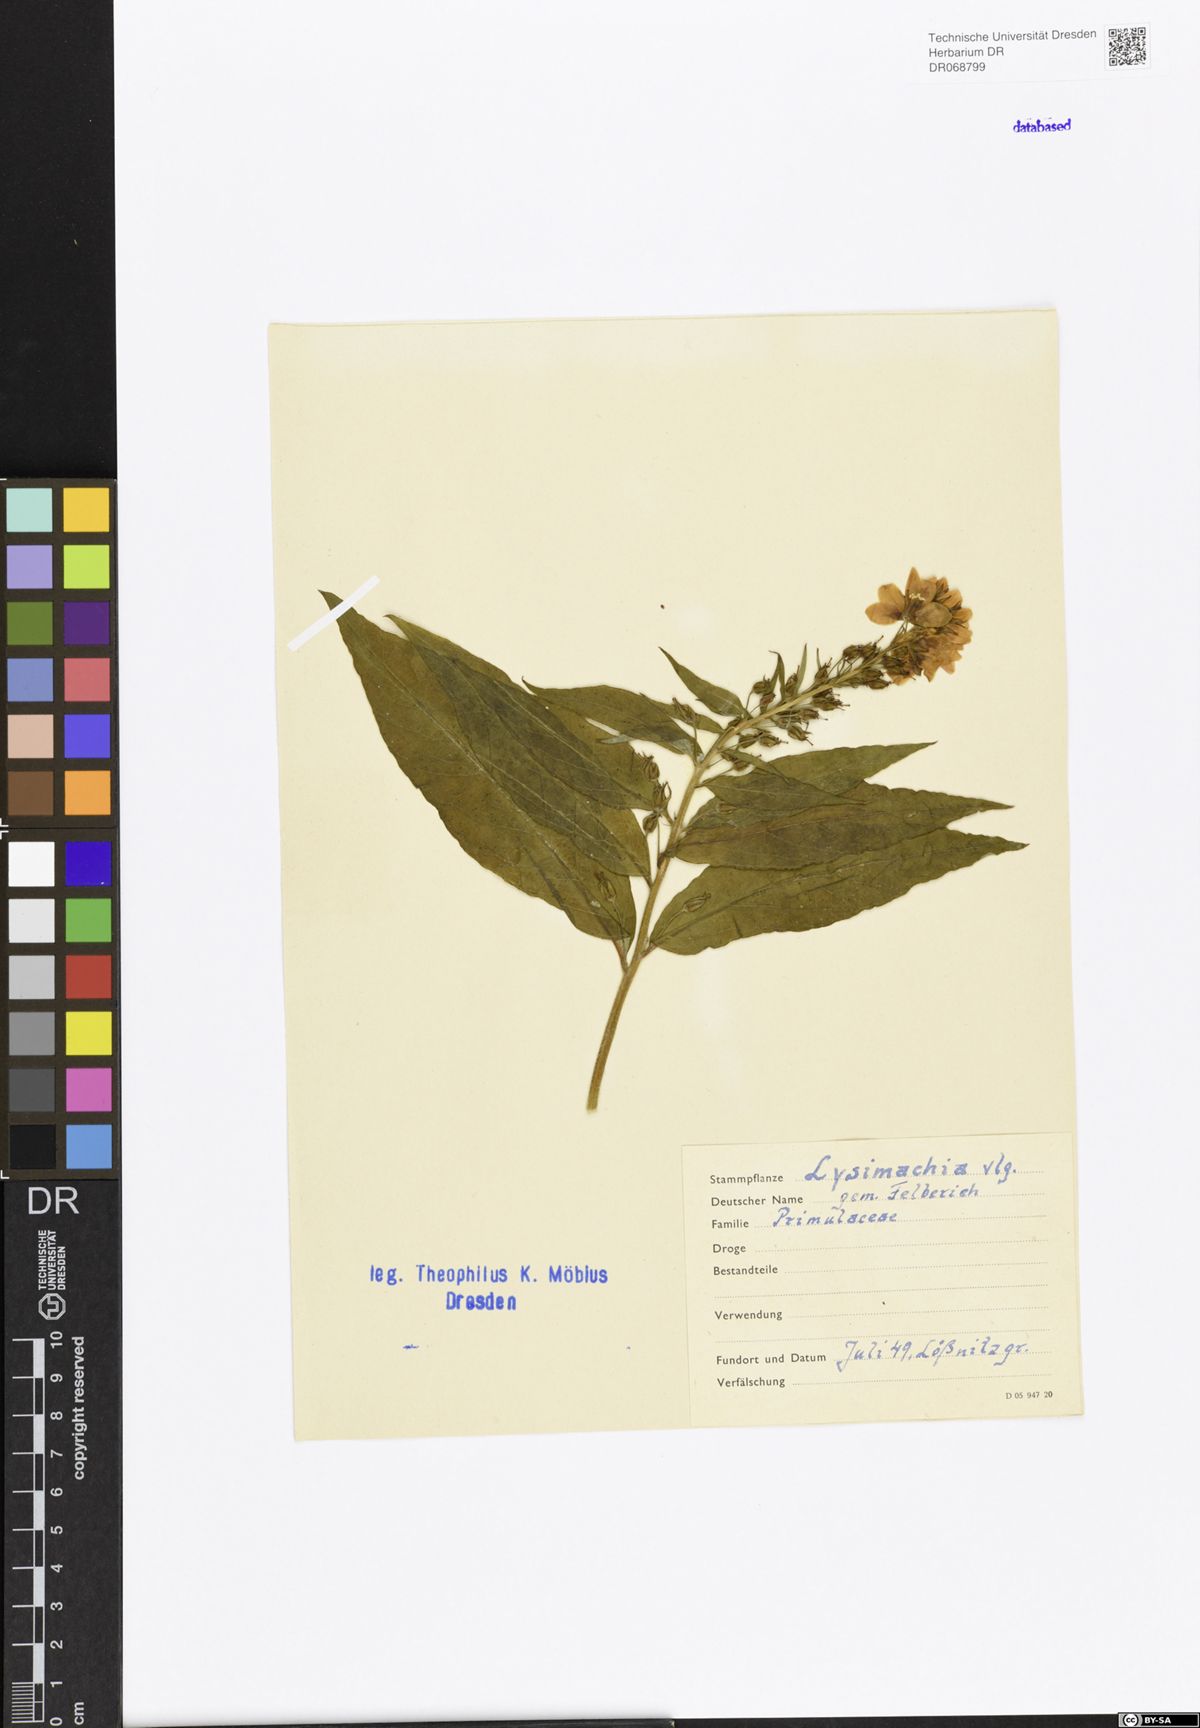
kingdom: Plantae
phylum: Tracheophyta
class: Magnoliopsida
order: Ericales
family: Primulaceae
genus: Lysimachia
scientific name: Lysimachia vulgaris
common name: Yellow loosestrife
